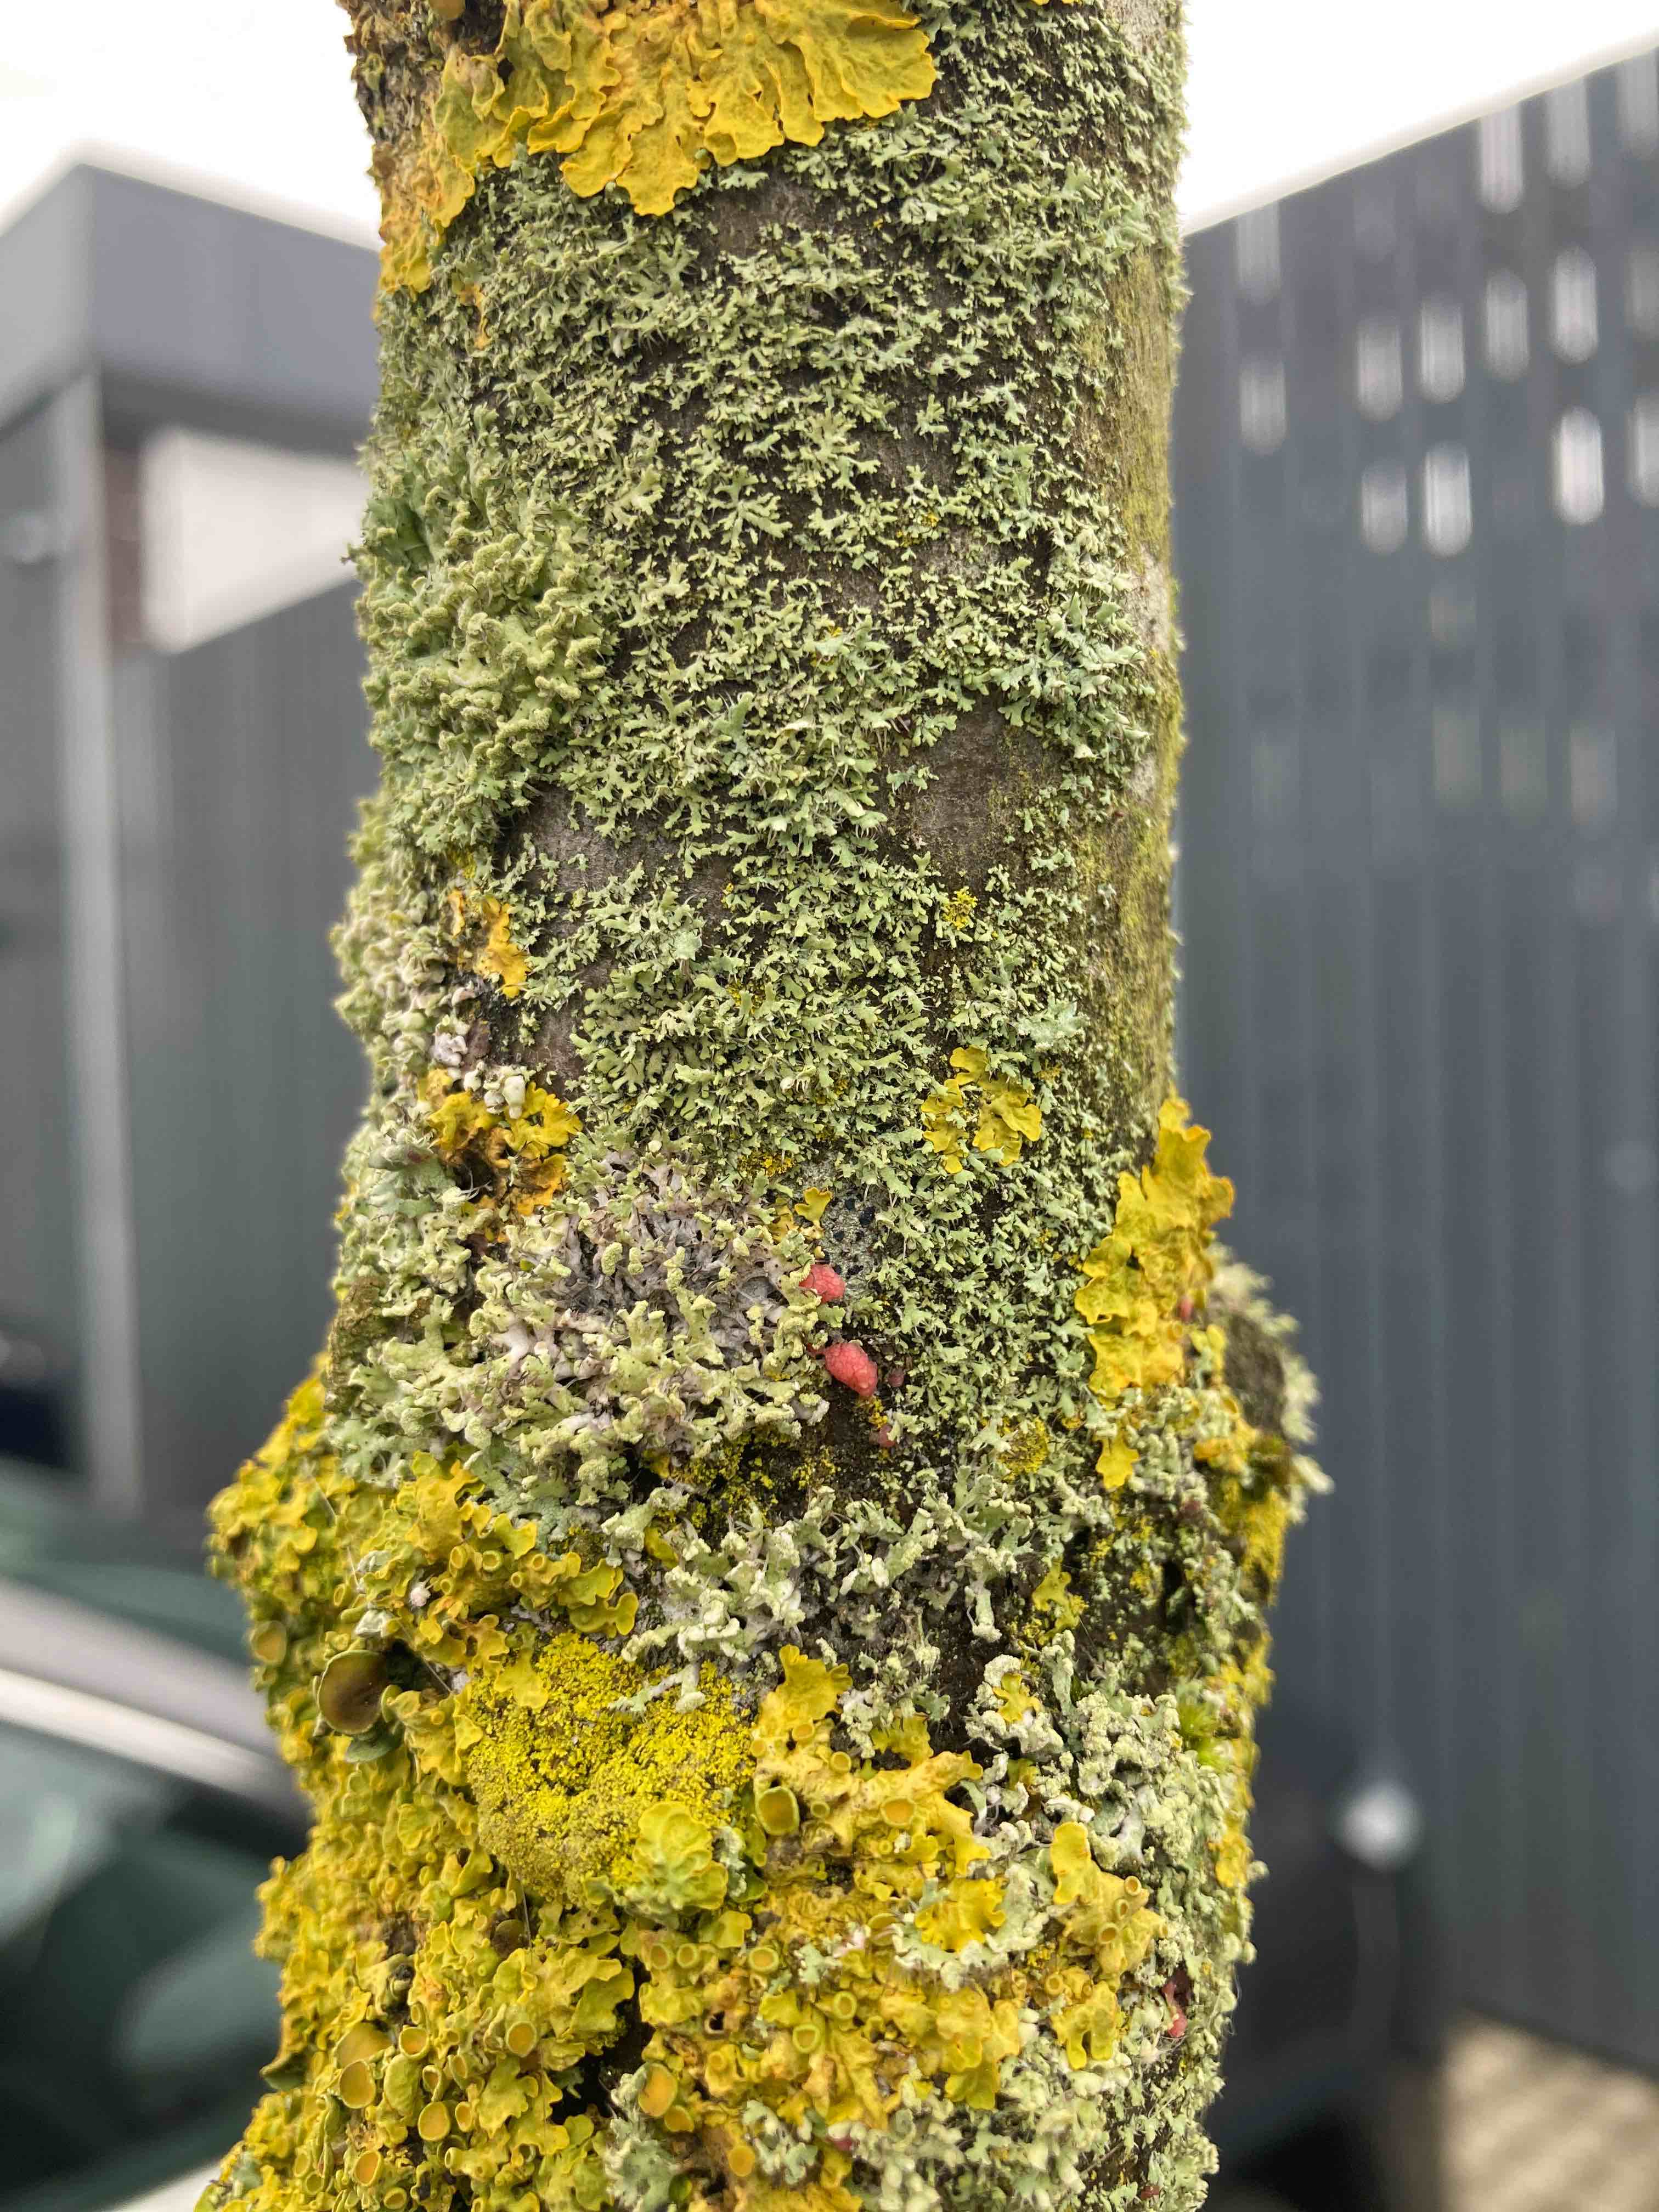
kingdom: Fungi
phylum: Ascomycota
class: Sordariomycetes
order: Hypocreales
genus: Illosporiopsis
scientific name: Illosporiopsis christiansenii
